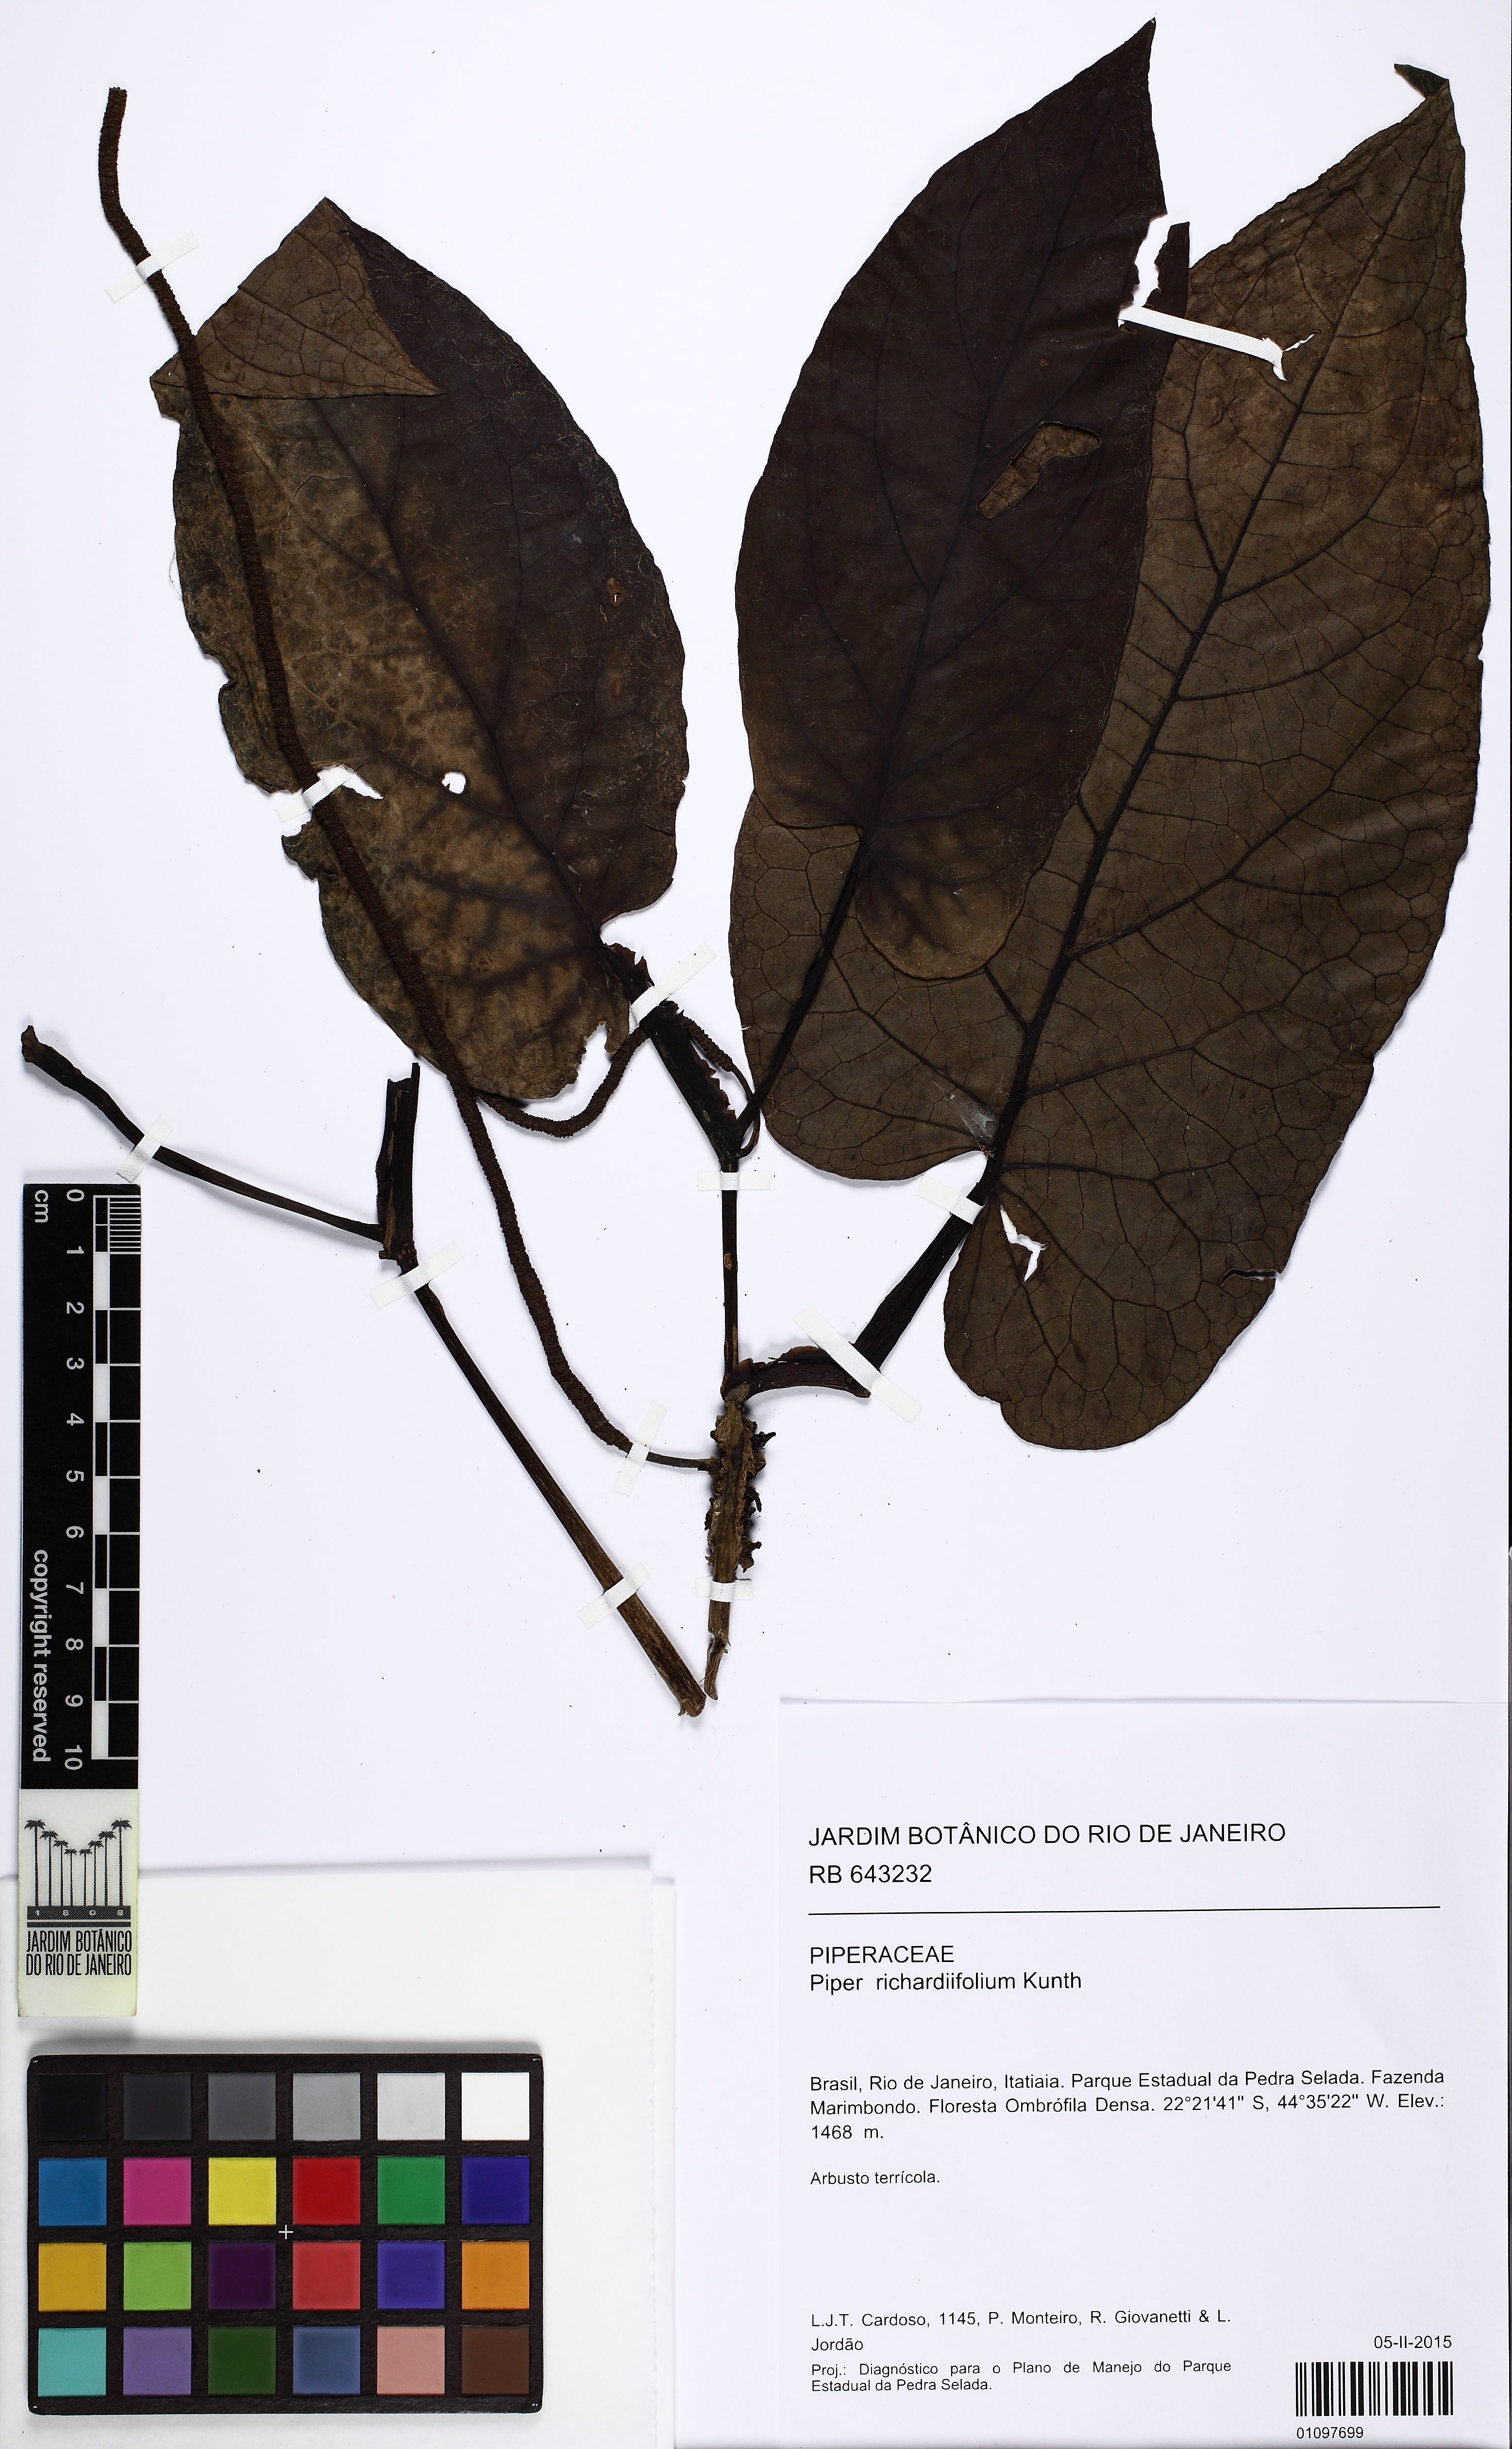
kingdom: Plantae
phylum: Tracheophyta
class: Magnoliopsida
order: Piperales
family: Piperaceae
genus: Piper
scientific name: Piper richardiifolium
